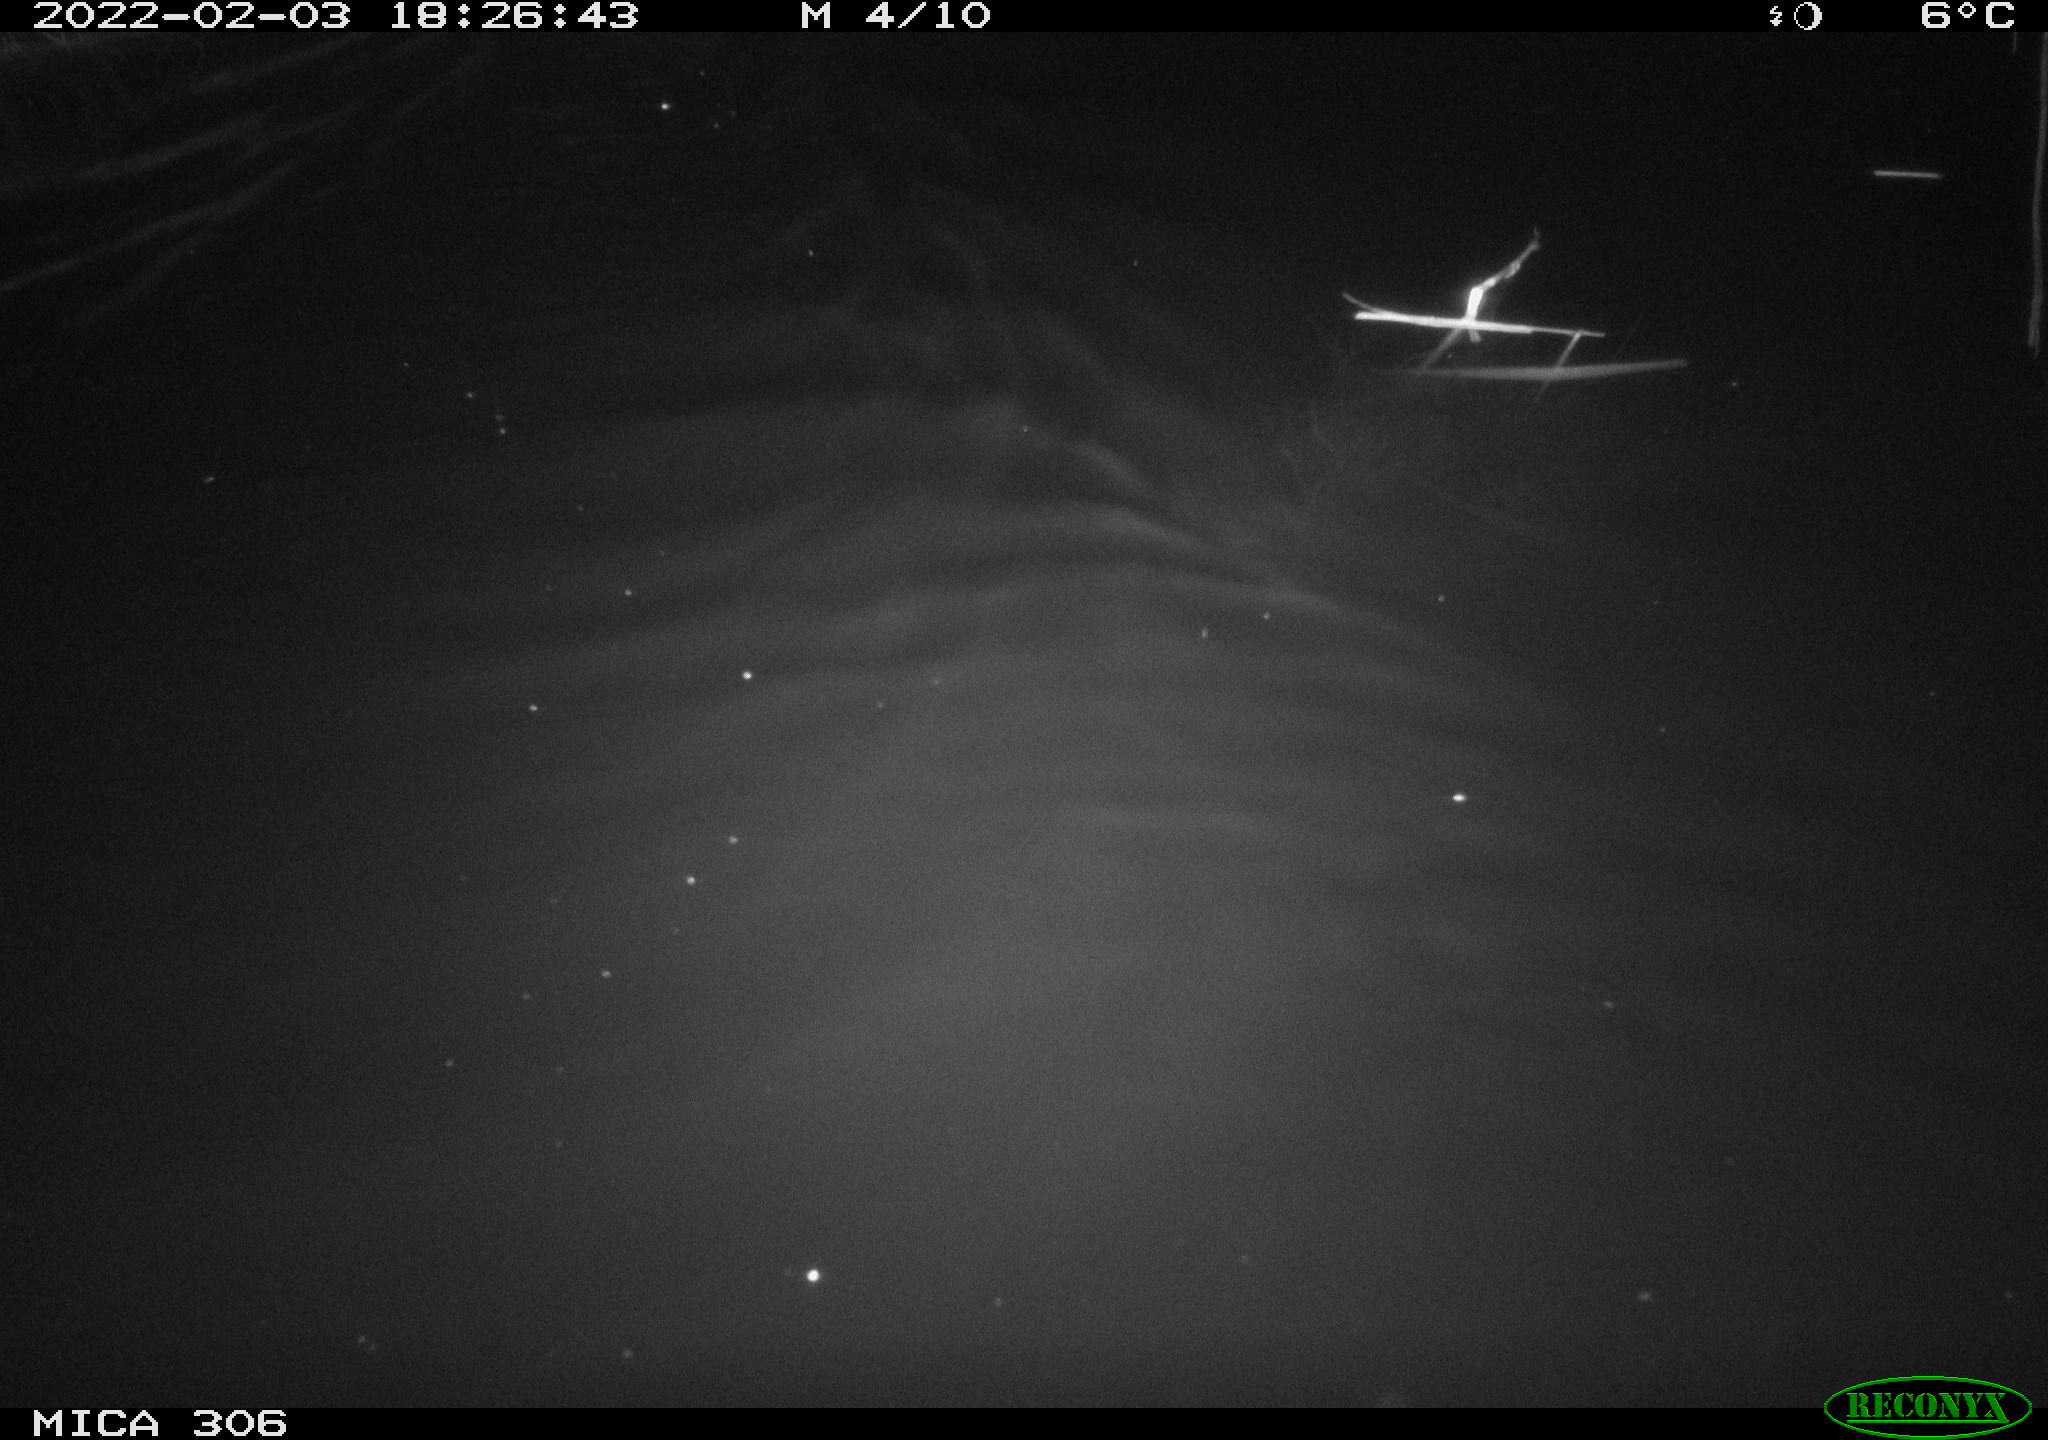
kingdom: Animalia
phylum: Chordata
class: Mammalia
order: Rodentia
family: Cricetidae
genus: Ondatra
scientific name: Ondatra zibethicus
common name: Muskrat
